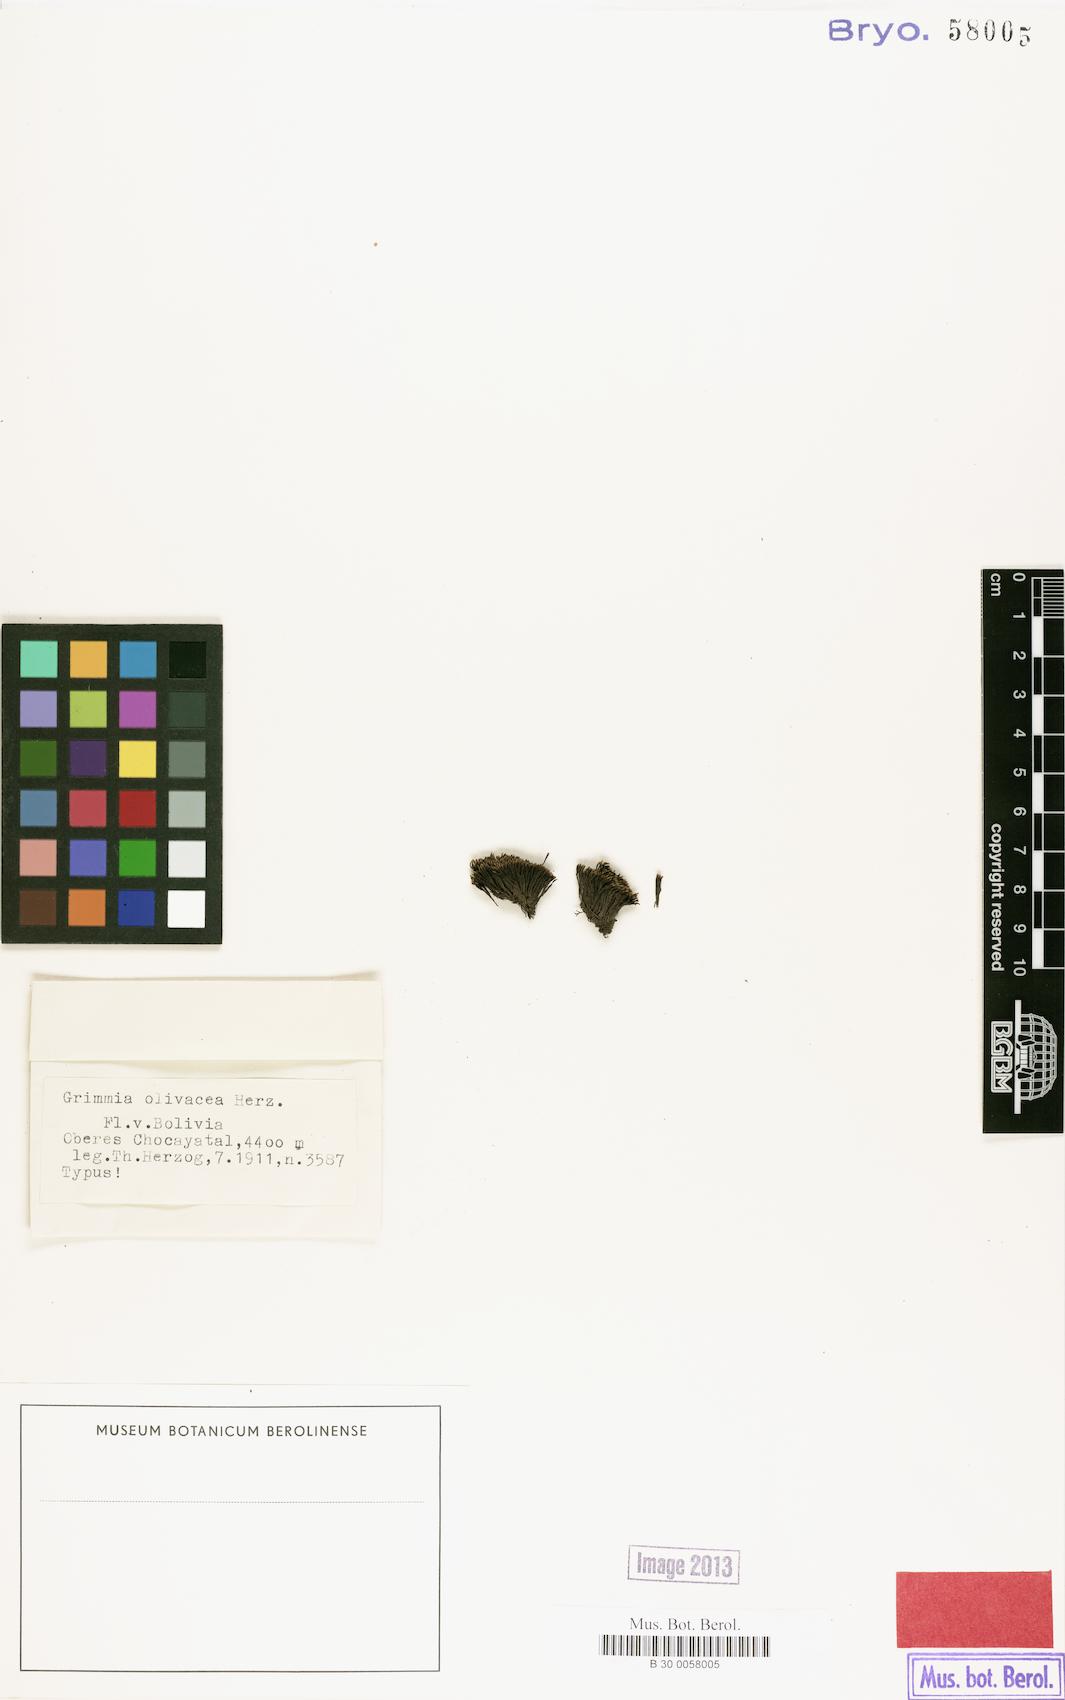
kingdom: Plantae
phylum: Bryophyta
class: Bryopsida
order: Grimmiales
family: Grimmiaceae
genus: Schistidium
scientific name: Schistidium olivaceum
